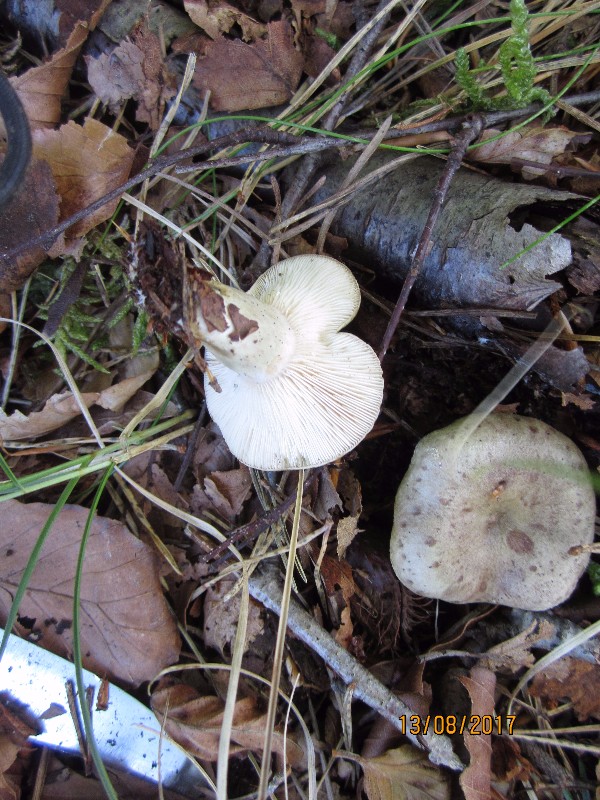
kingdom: Fungi
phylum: Basidiomycota
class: Agaricomycetes
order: Russulales
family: Russulaceae
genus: Lactarius
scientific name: Lactarius blennius
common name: dråbeplettet mælkehat
